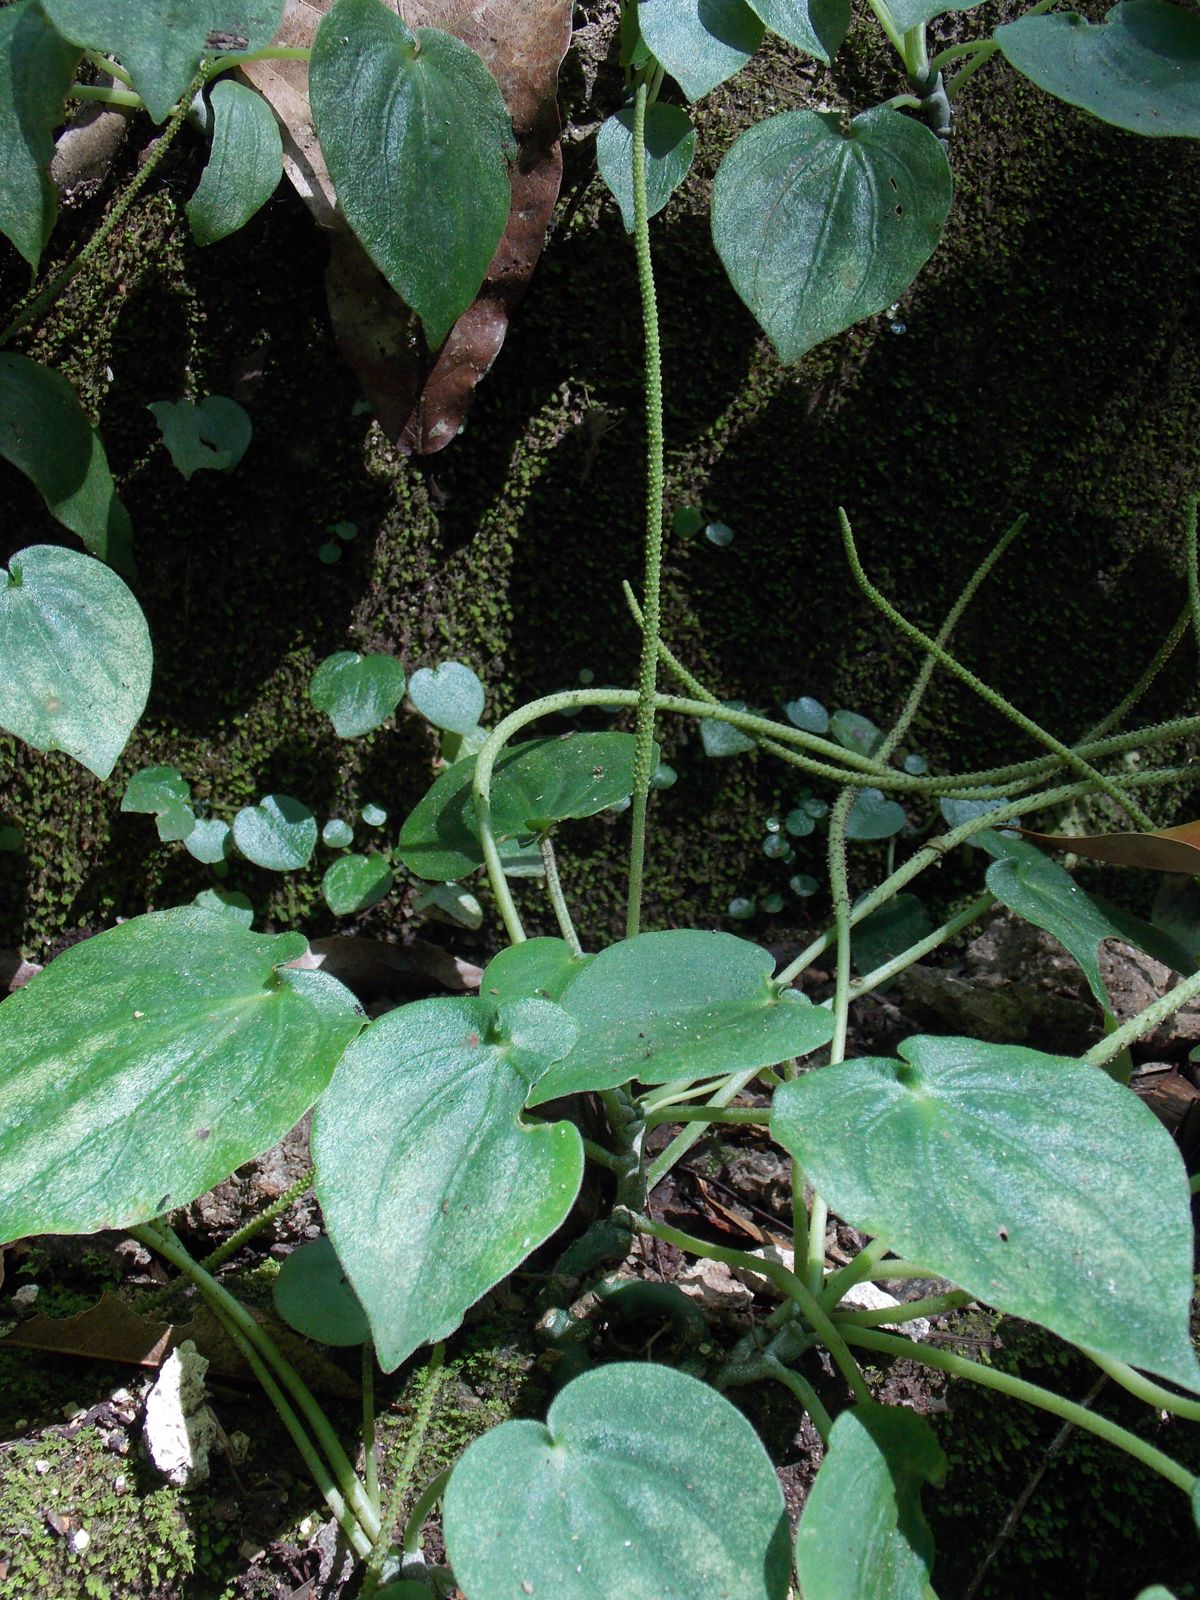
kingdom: Plantae
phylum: Tracheophyta
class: Magnoliopsida
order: Piperales
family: Piperaceae
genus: Peperomia
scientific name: Peperomia lanceolatopeltata
